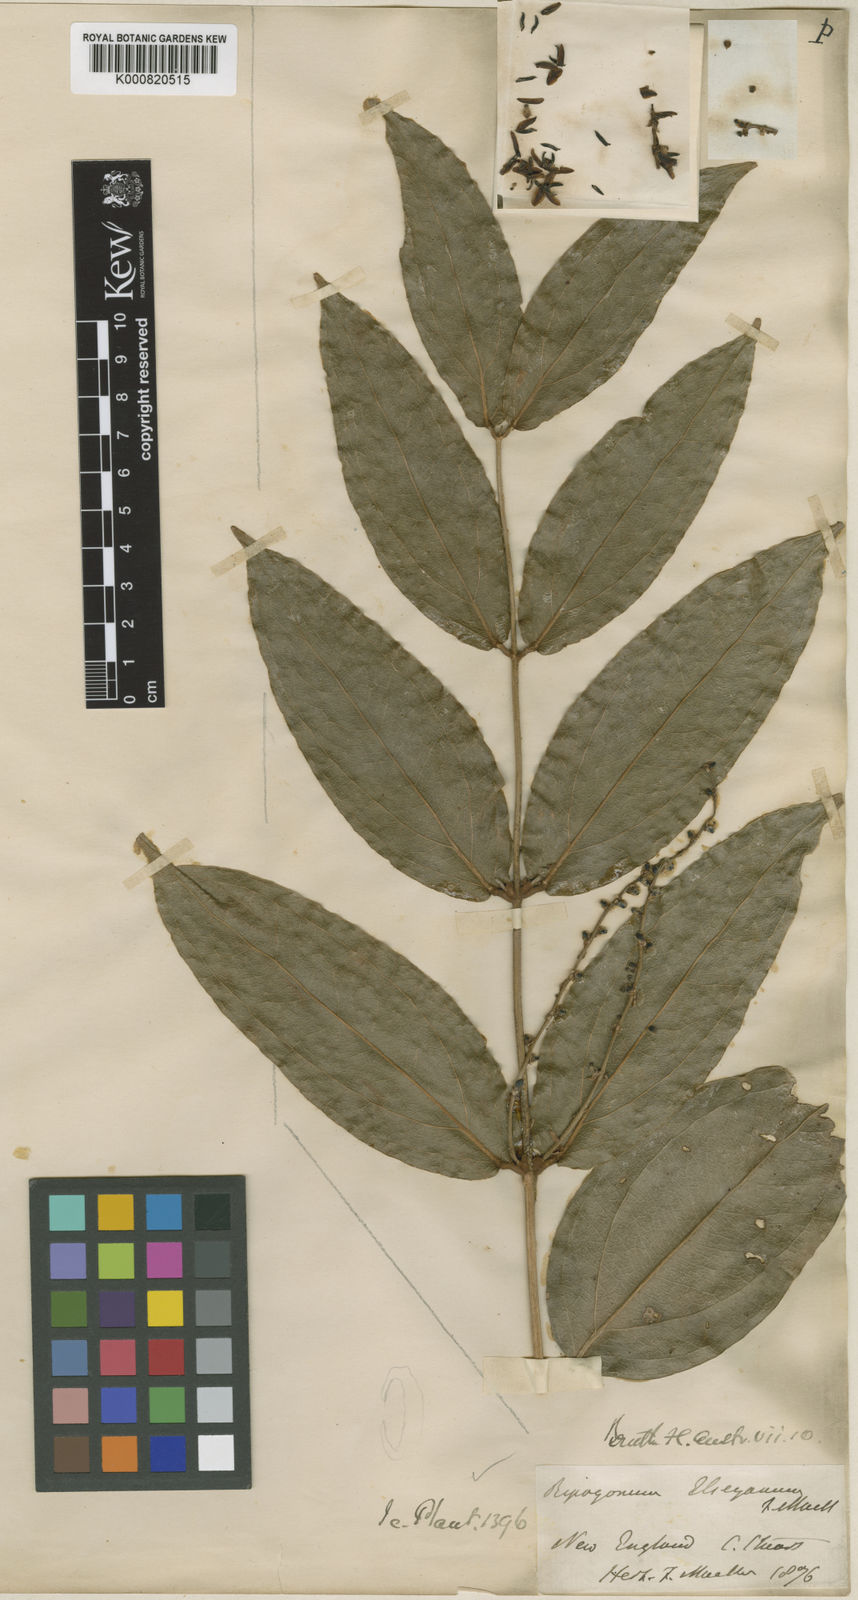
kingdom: Plantae
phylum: Tracheophyta
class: Liliopsida
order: Liliales
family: Ripogonaceae
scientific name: Ripogonaceae
